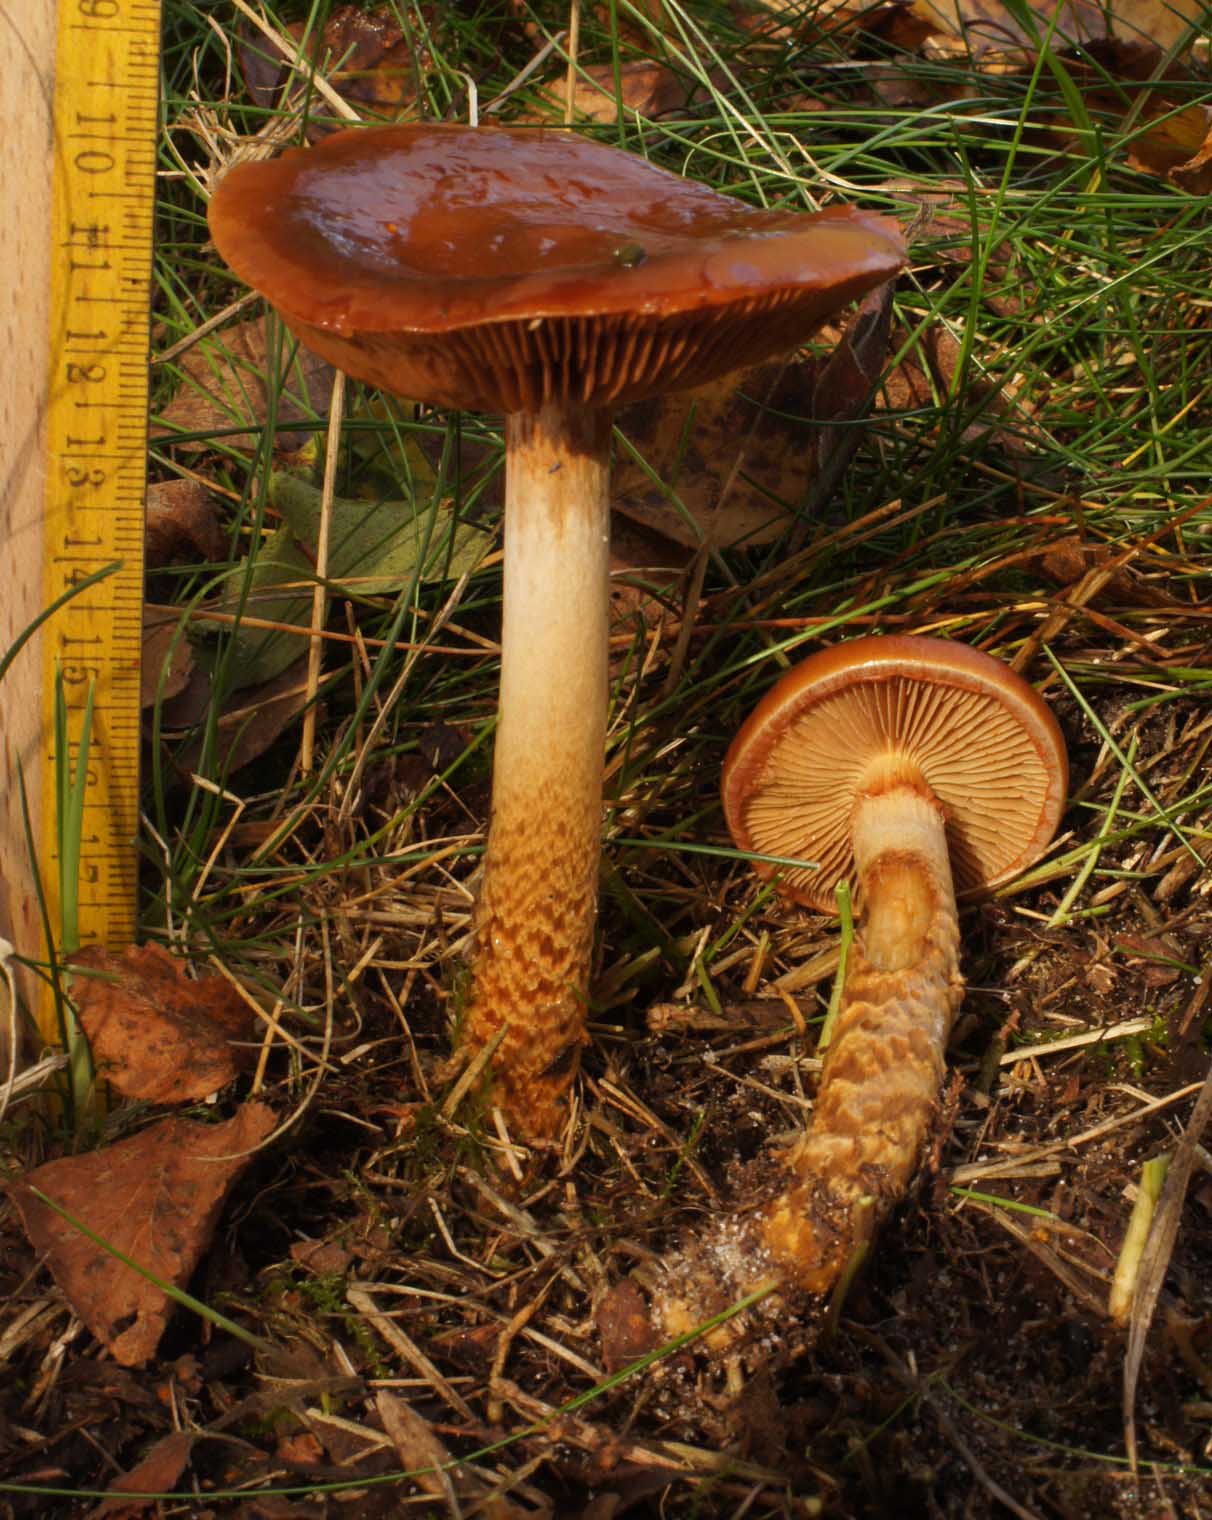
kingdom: Fungi
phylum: Basidiomycota
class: Agaricomycetes
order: Agaricales
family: Cortinariaceae
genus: Cortinarius
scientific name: Cortinarius trivialis
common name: brunslimet slørhat
